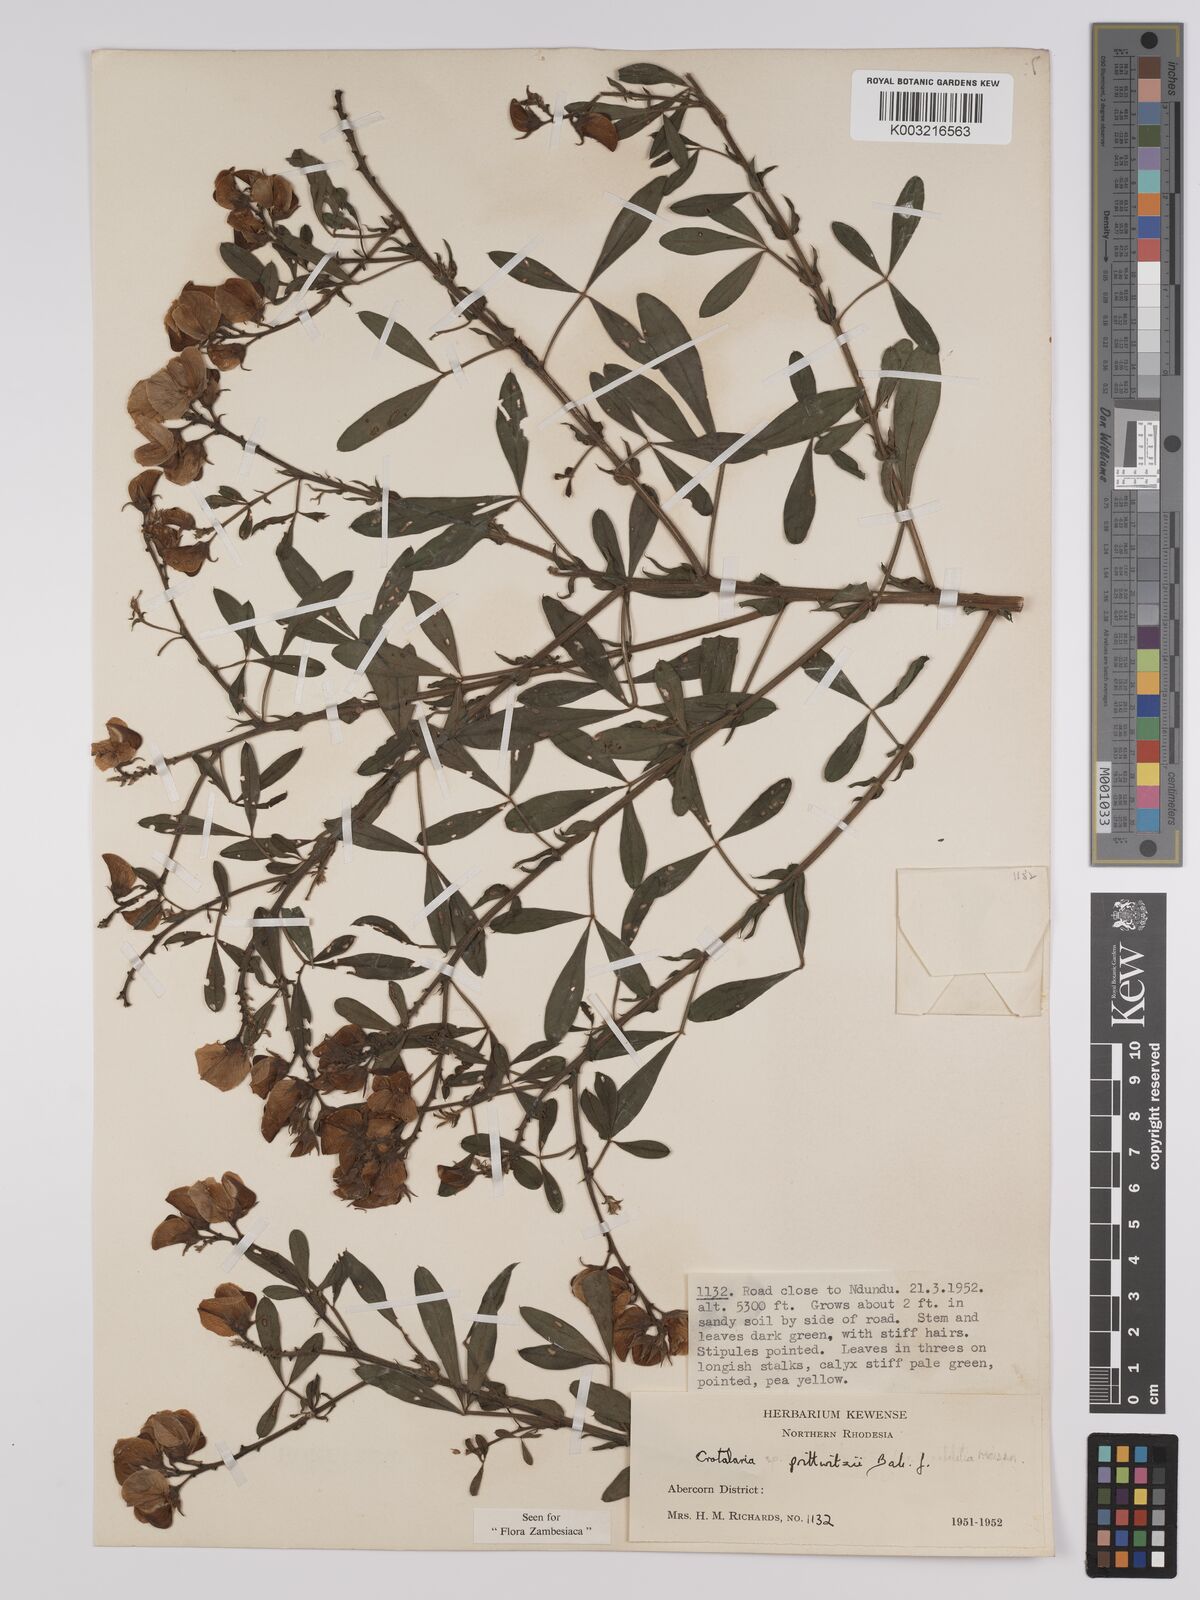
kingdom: Plantae
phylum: Tracheophyta
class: Magnoliopsida
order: Fabales
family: Fabaceae
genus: Crotalaria
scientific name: Crotalaria prittwitzii
